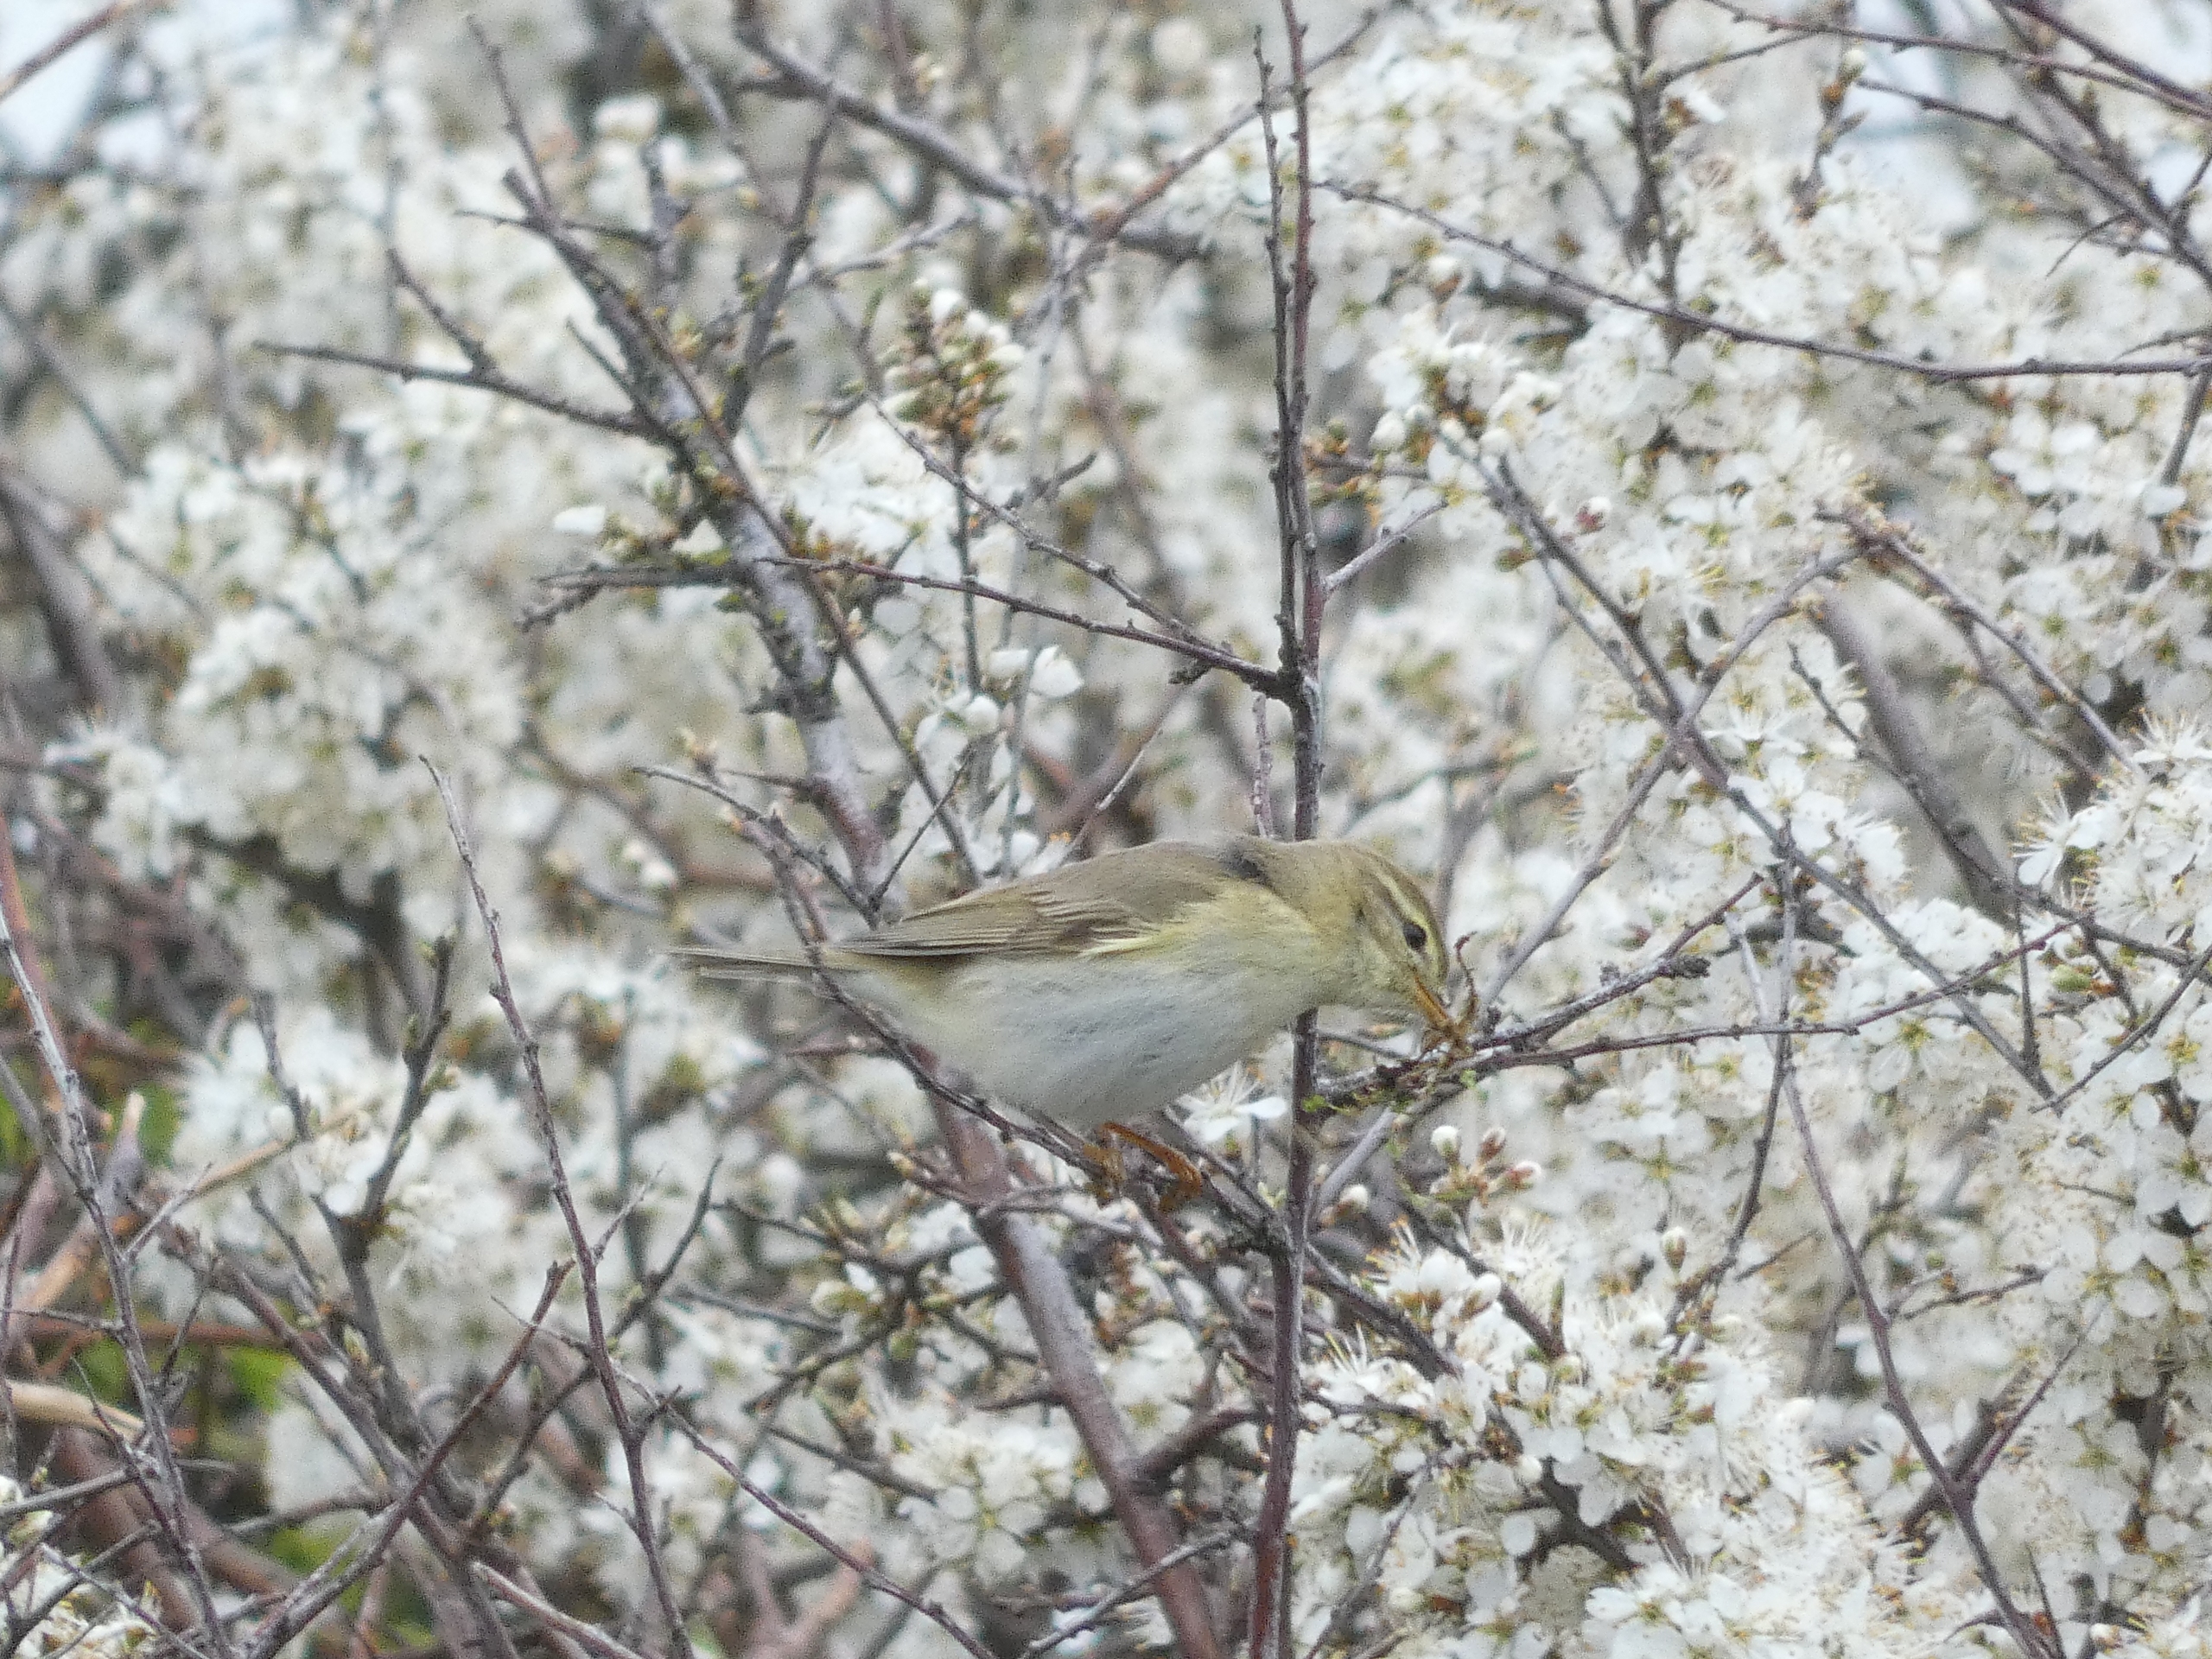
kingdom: Animalia
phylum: Chordata
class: Aves
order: Passeriformes
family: Phylloscopidae
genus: Phylloscopus
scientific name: Phylloscopus trochilus
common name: Løvsanger
